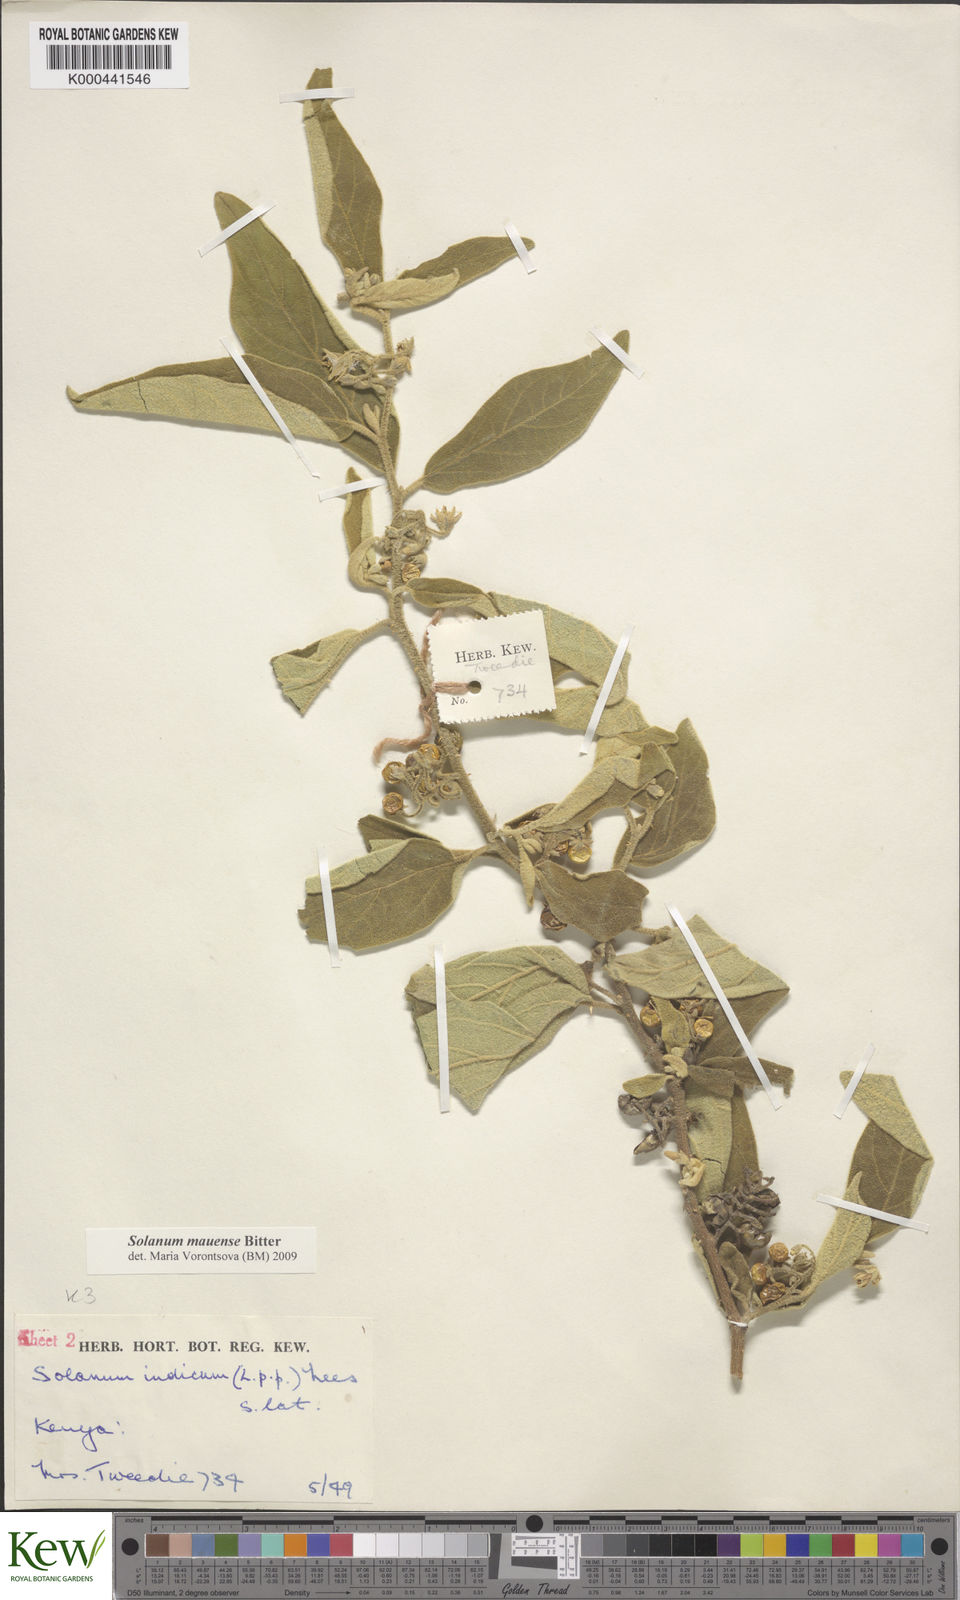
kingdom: Plantae
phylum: Tracheophyta
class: Magnoliopsida
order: Solanales
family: Solanaceae
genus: Solanum
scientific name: Solanum mauense
